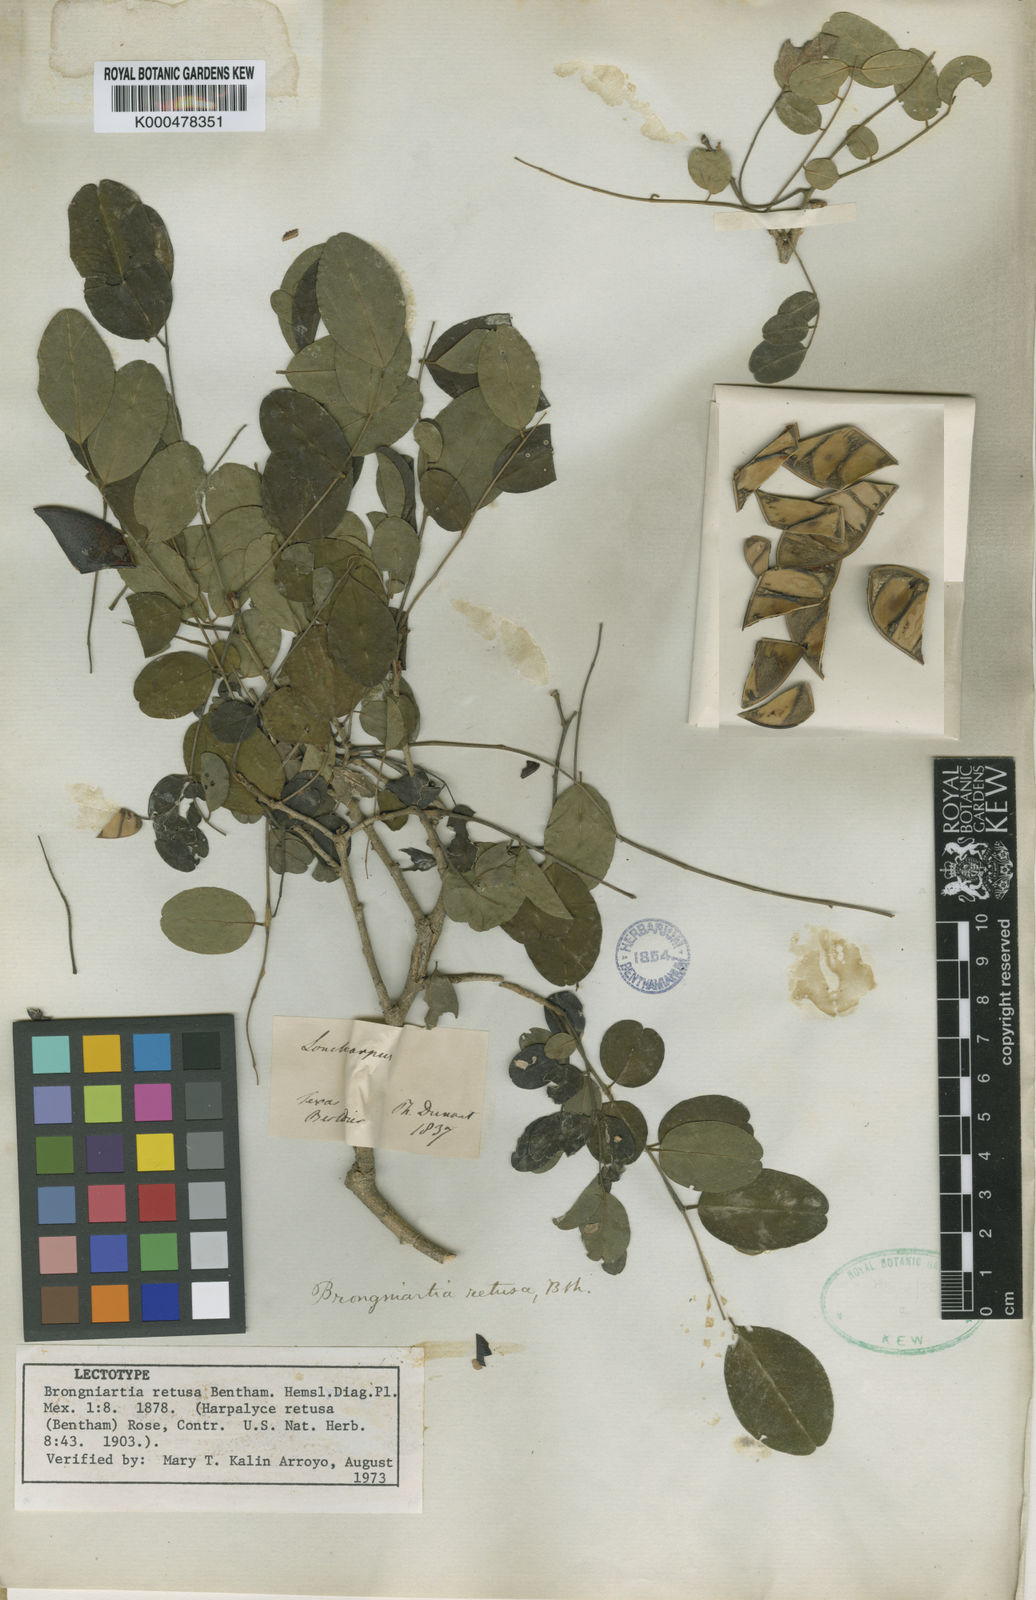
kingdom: Plantae
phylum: Tracheophyta
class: Magnoliopsida
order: Fabales
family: Fabaceae
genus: Harpalyce
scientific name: Harpalyce arborescens
